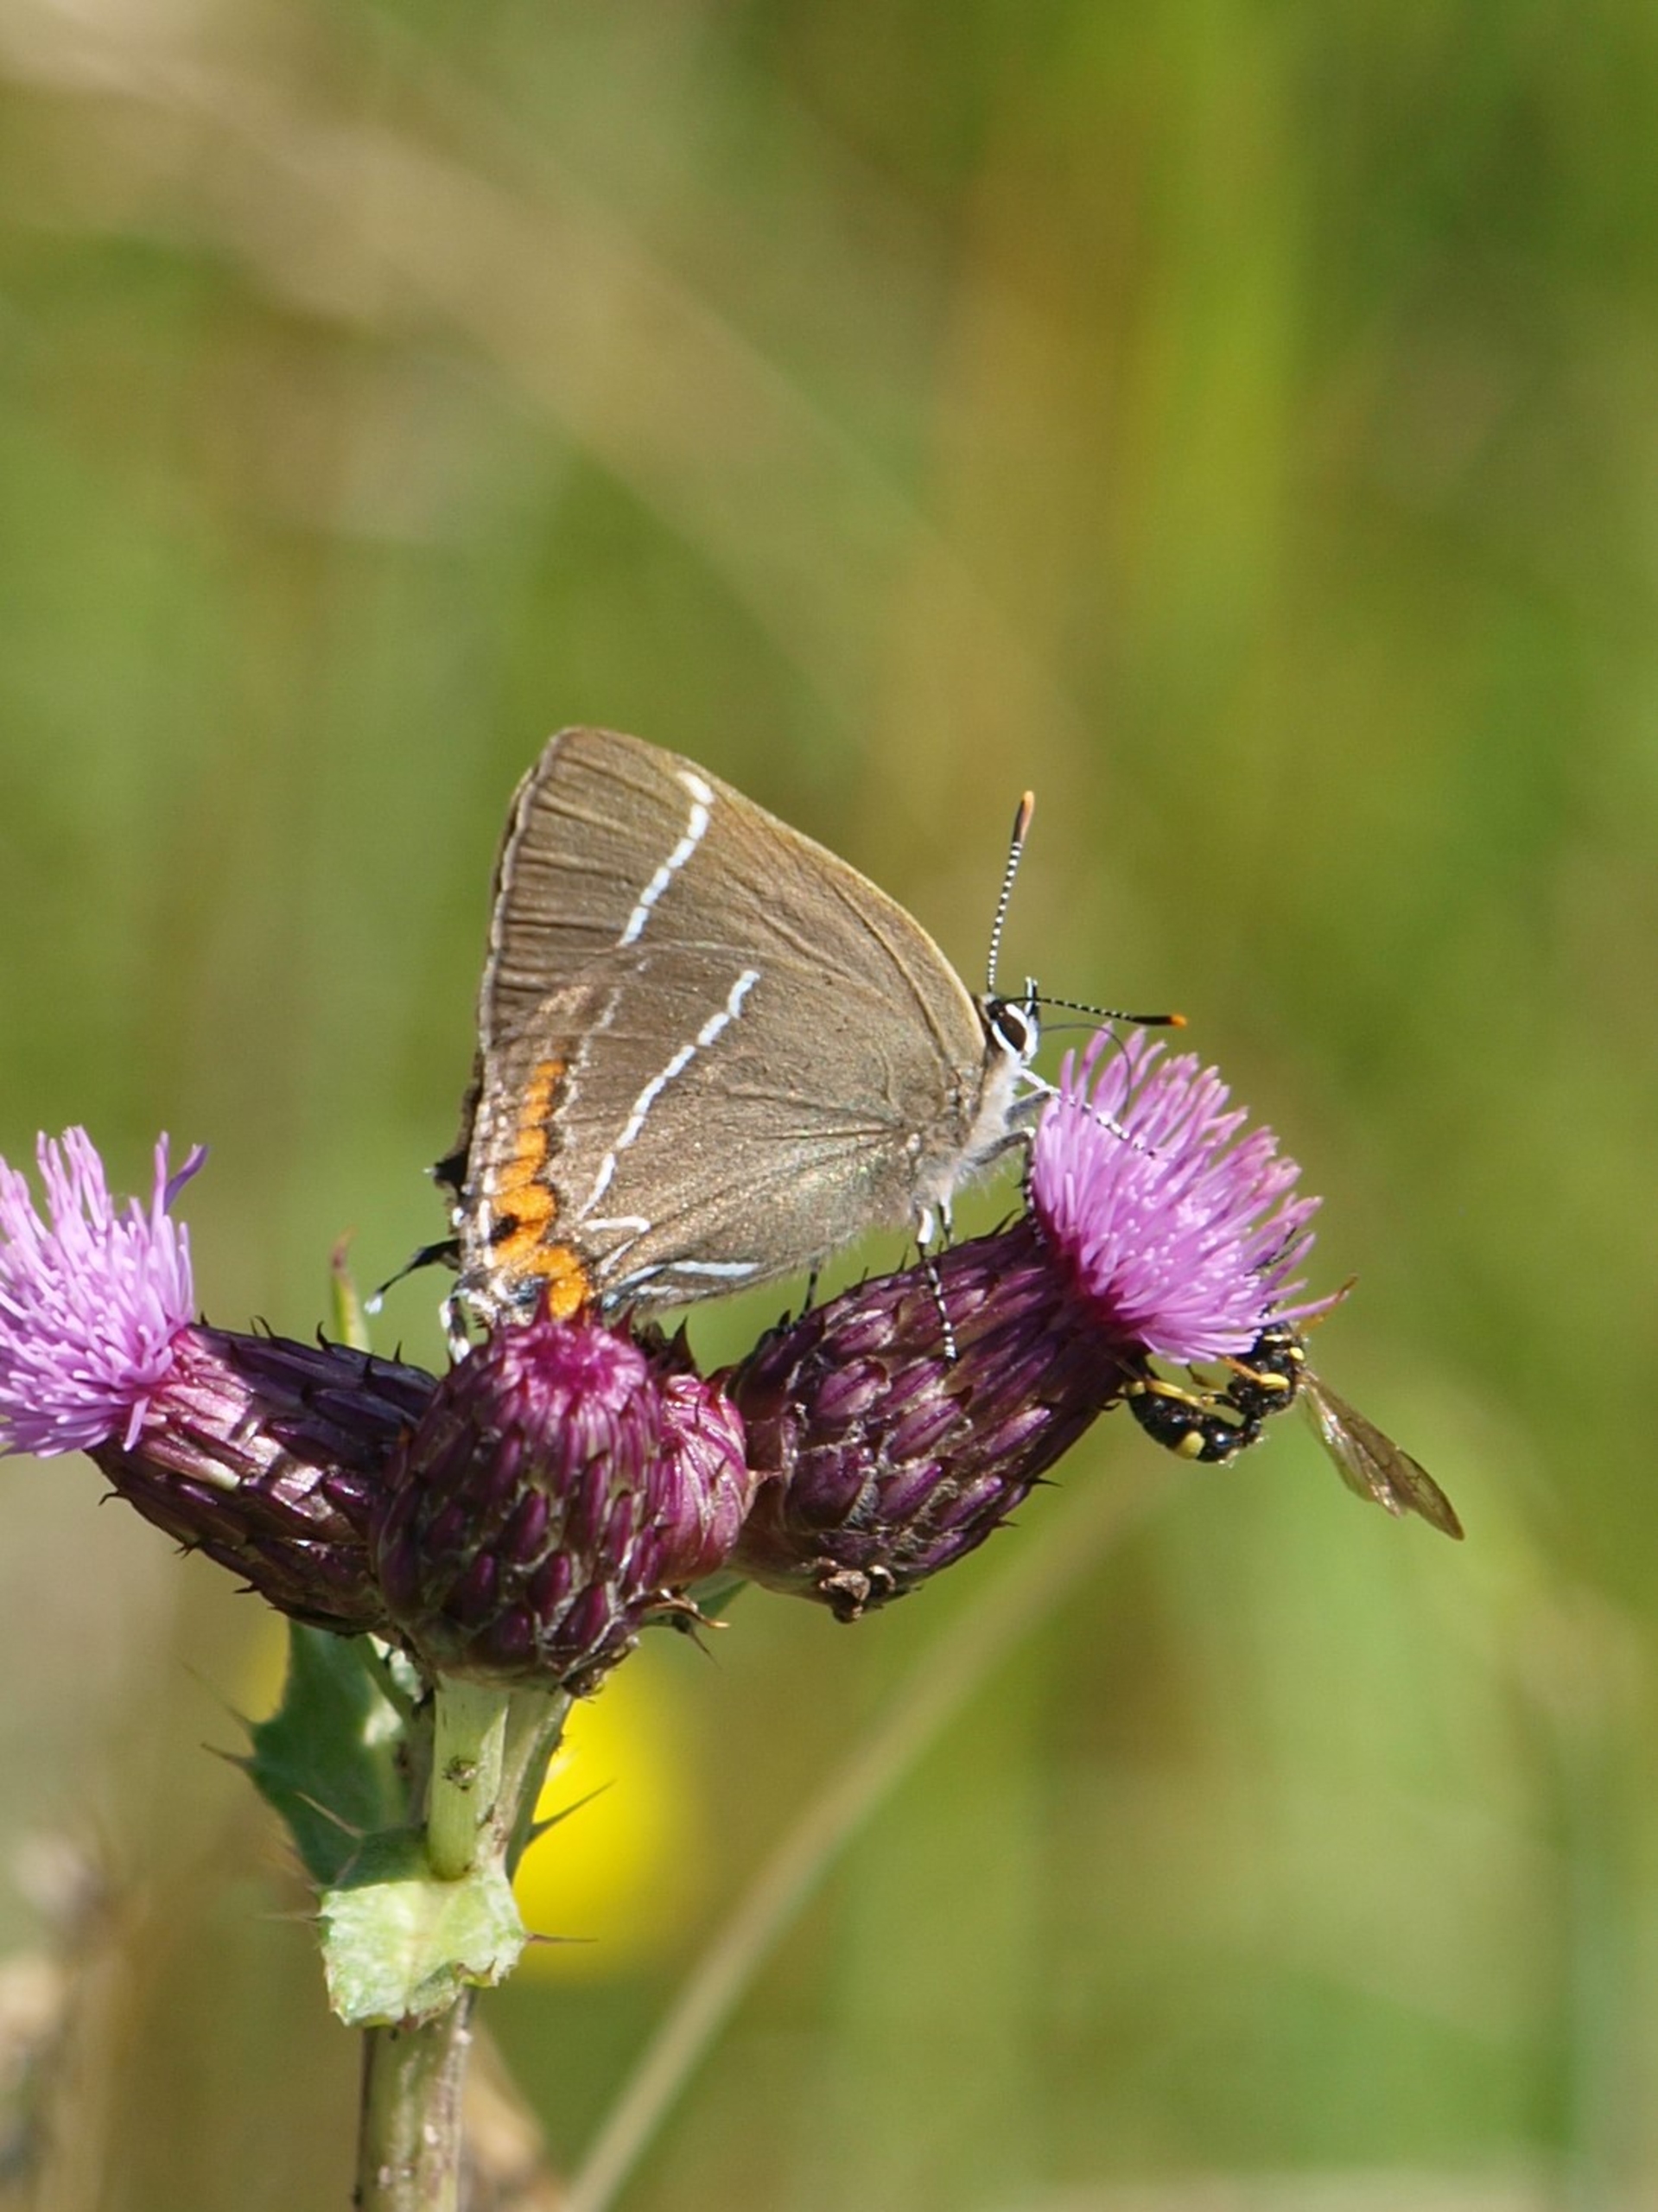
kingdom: Animalia
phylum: Arthropoda
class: Insecta
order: Lepidoptera
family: Lycaenidae
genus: Satyrium
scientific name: Satyrium w-album
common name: Det hvide W
